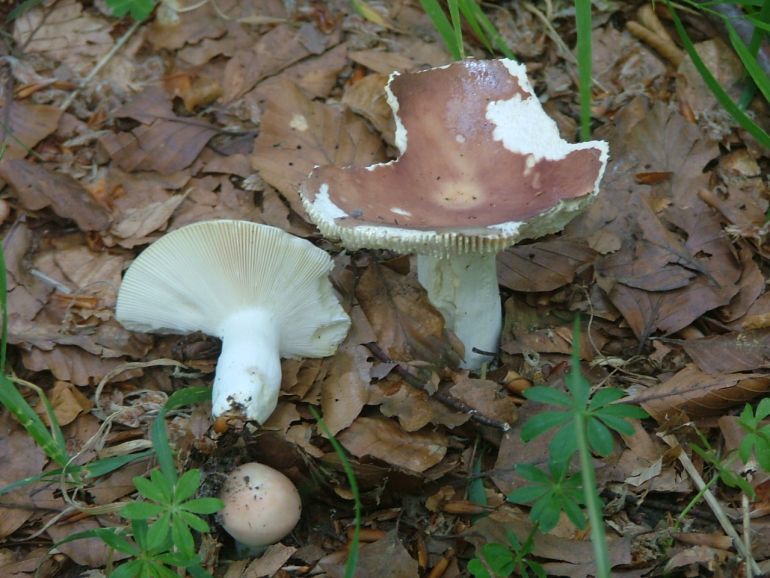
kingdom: Fungi
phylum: Basidiomycota
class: Agaricomycetes
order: Russulales
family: Russulaceae
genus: Russula
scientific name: Russula vesca
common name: spiselig skørhat
